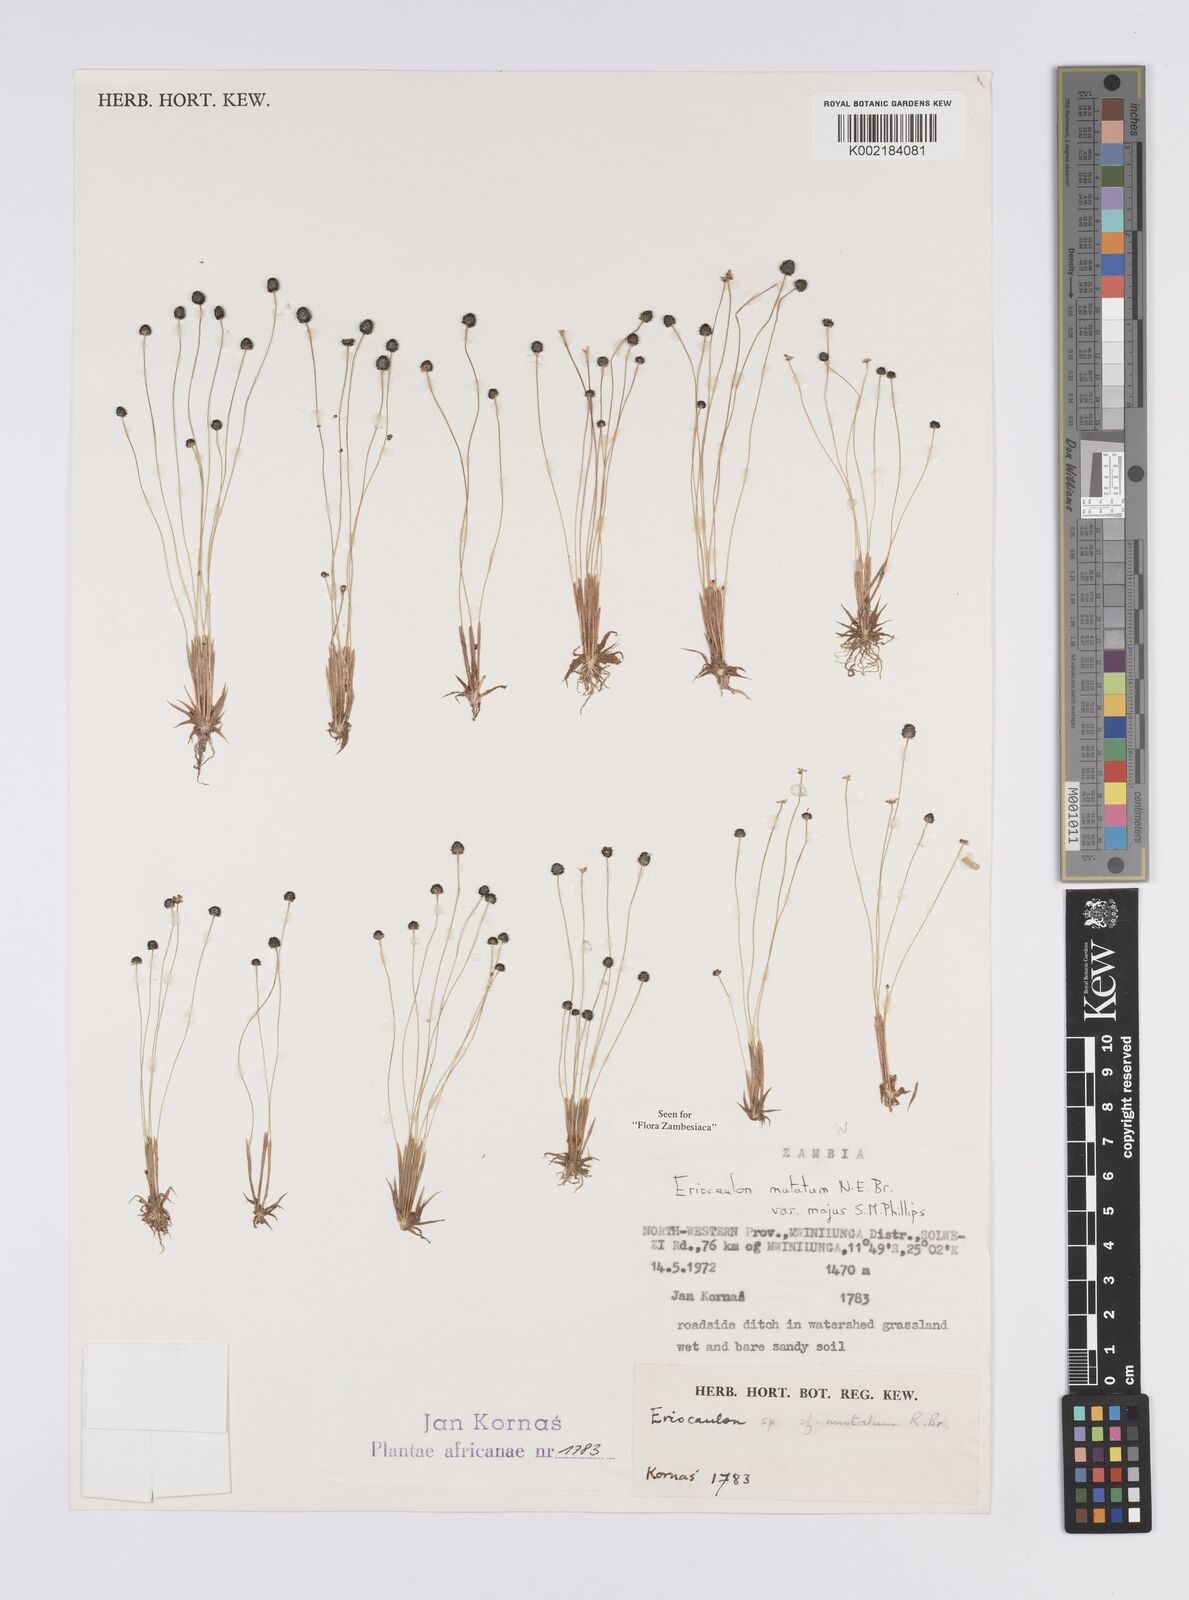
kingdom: Plantae
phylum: Tracheophyta
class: Liliopsida
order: Poales
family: Eriocaulaceae
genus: Eriocaulon
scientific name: Eriocaulon mutatum
